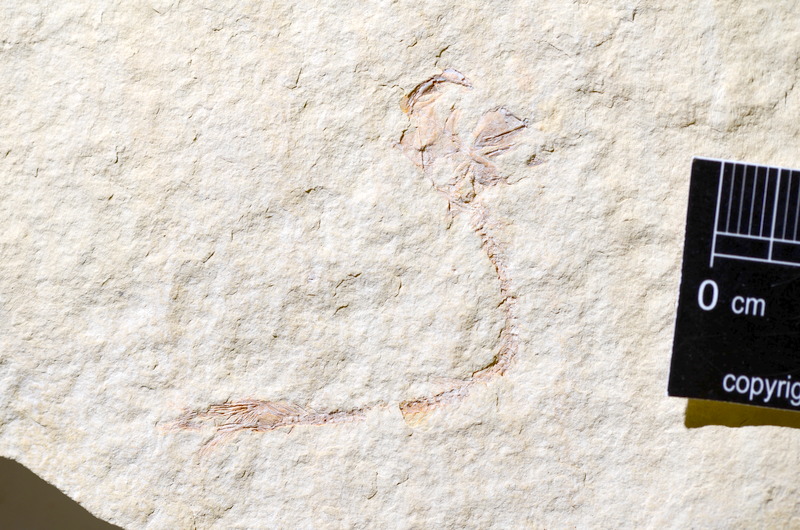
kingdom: Animalia
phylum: Chordata
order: Salmoniformes
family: Orthogonikleithridae
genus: Leptolepides
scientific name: Leptolepides
